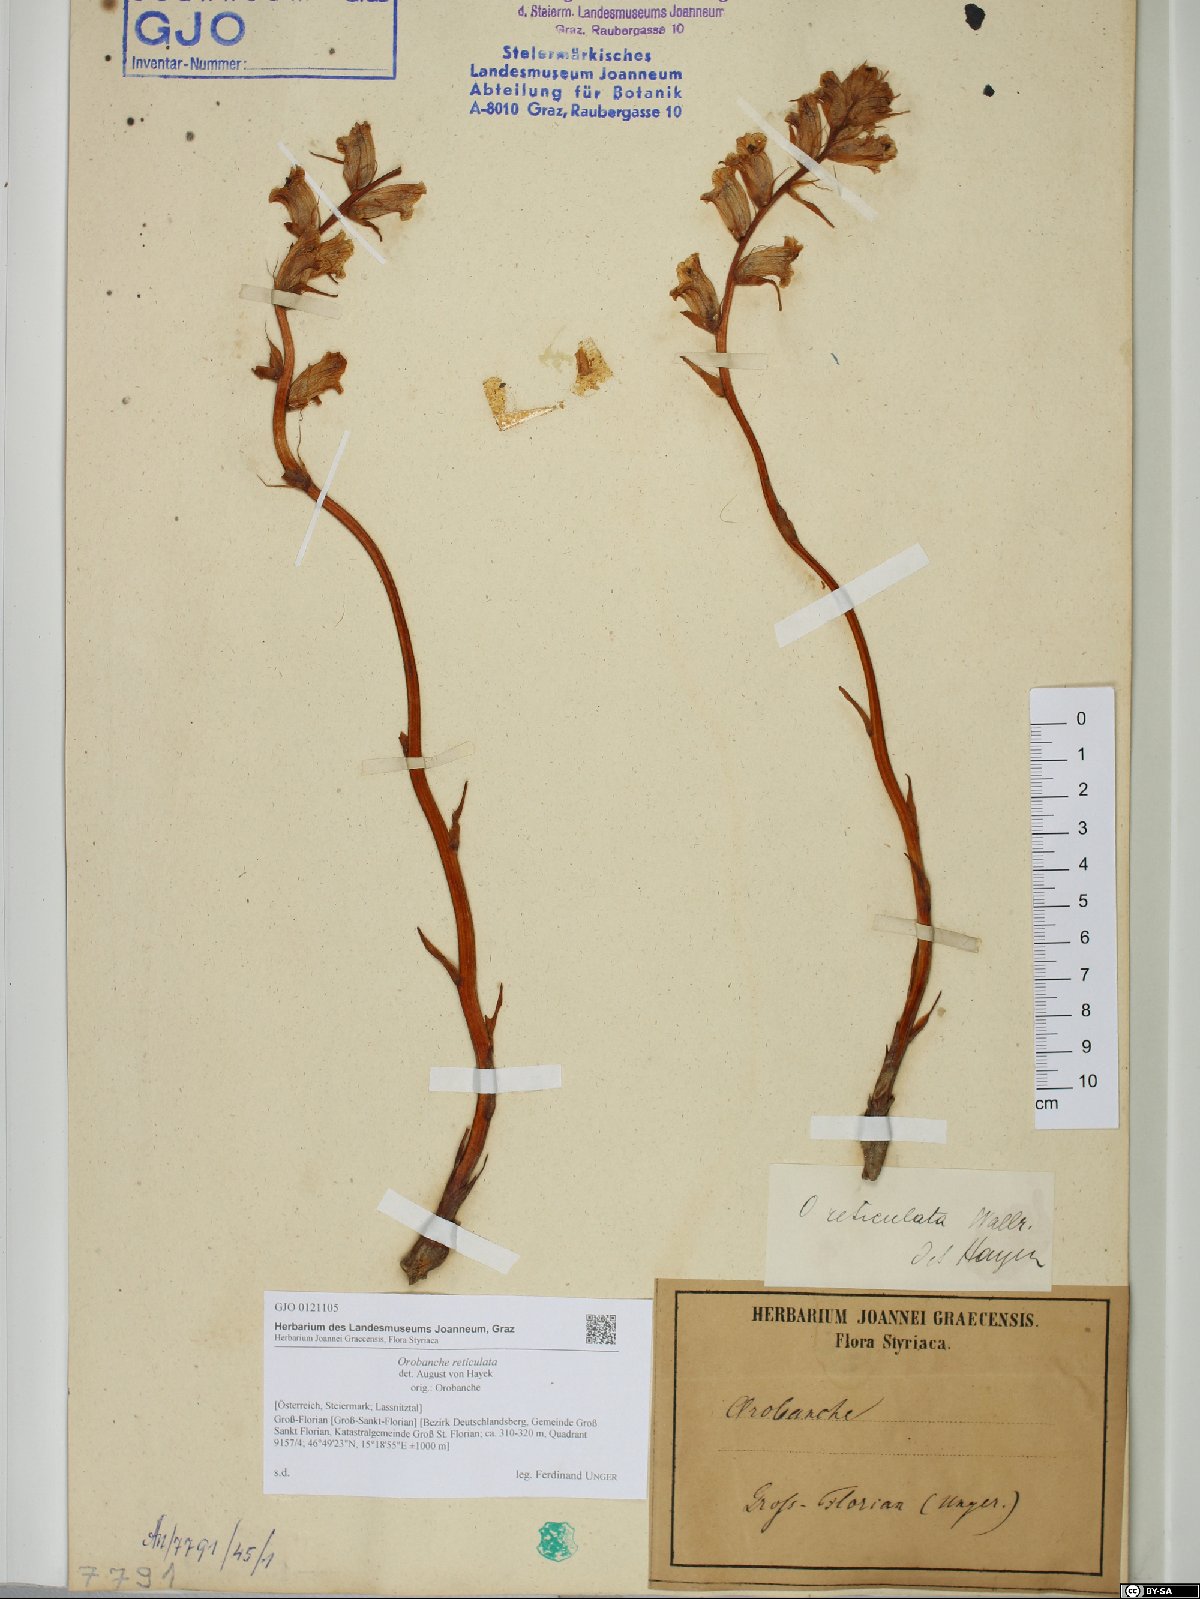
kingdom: Plantae
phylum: Tracheophyta
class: Magnoliopsida
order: Lamiales
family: Orobanchaceae
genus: Orobanche
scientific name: Orobanche reticulata
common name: Thistle broomrape
